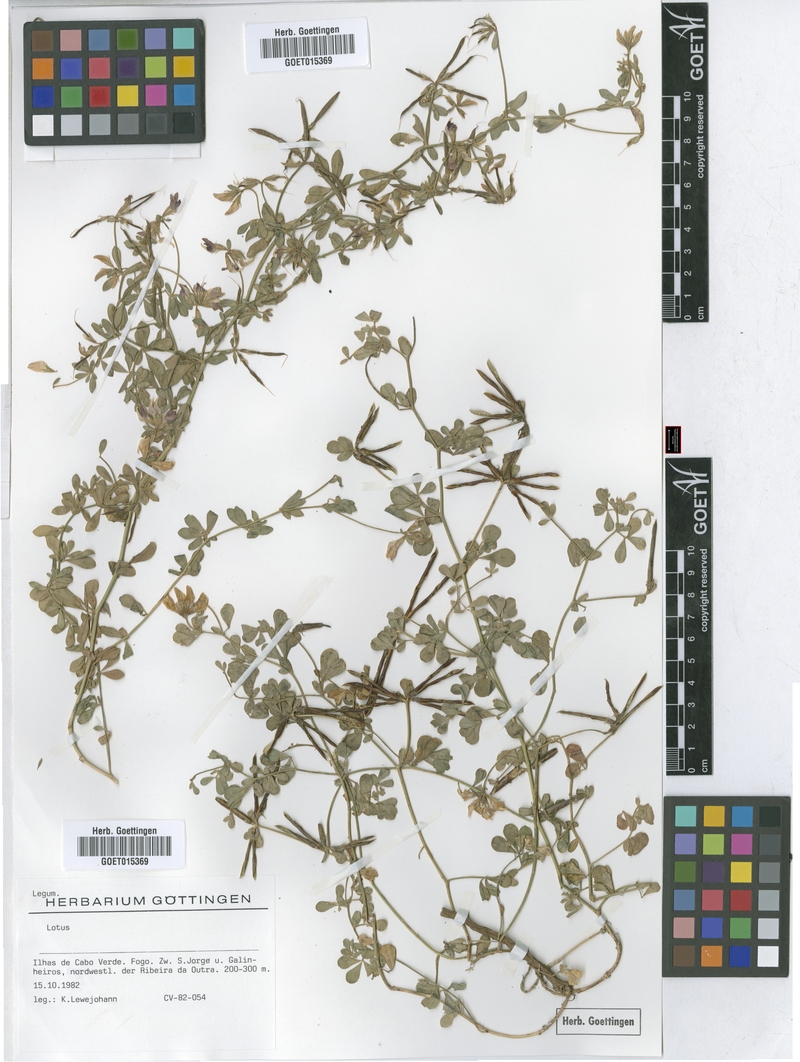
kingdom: Plantae
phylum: Tracheophyta
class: Magnoliopsida
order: Fabales
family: Fabaceae
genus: Lotus
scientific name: Lotus
